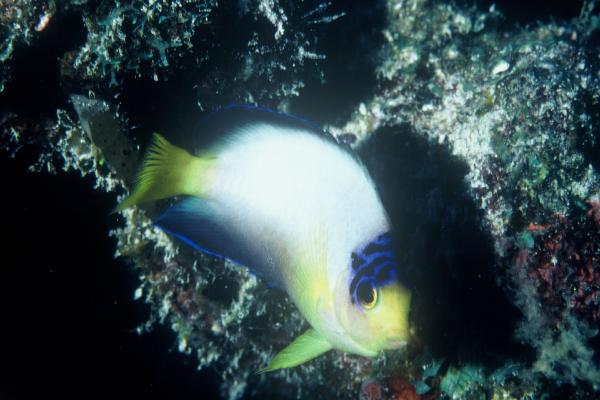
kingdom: Animalia
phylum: Chordata
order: Perciformes
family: Pomacanthidae
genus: Centropyge
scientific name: Centropyge multicolor
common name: Multicolor angelfish
